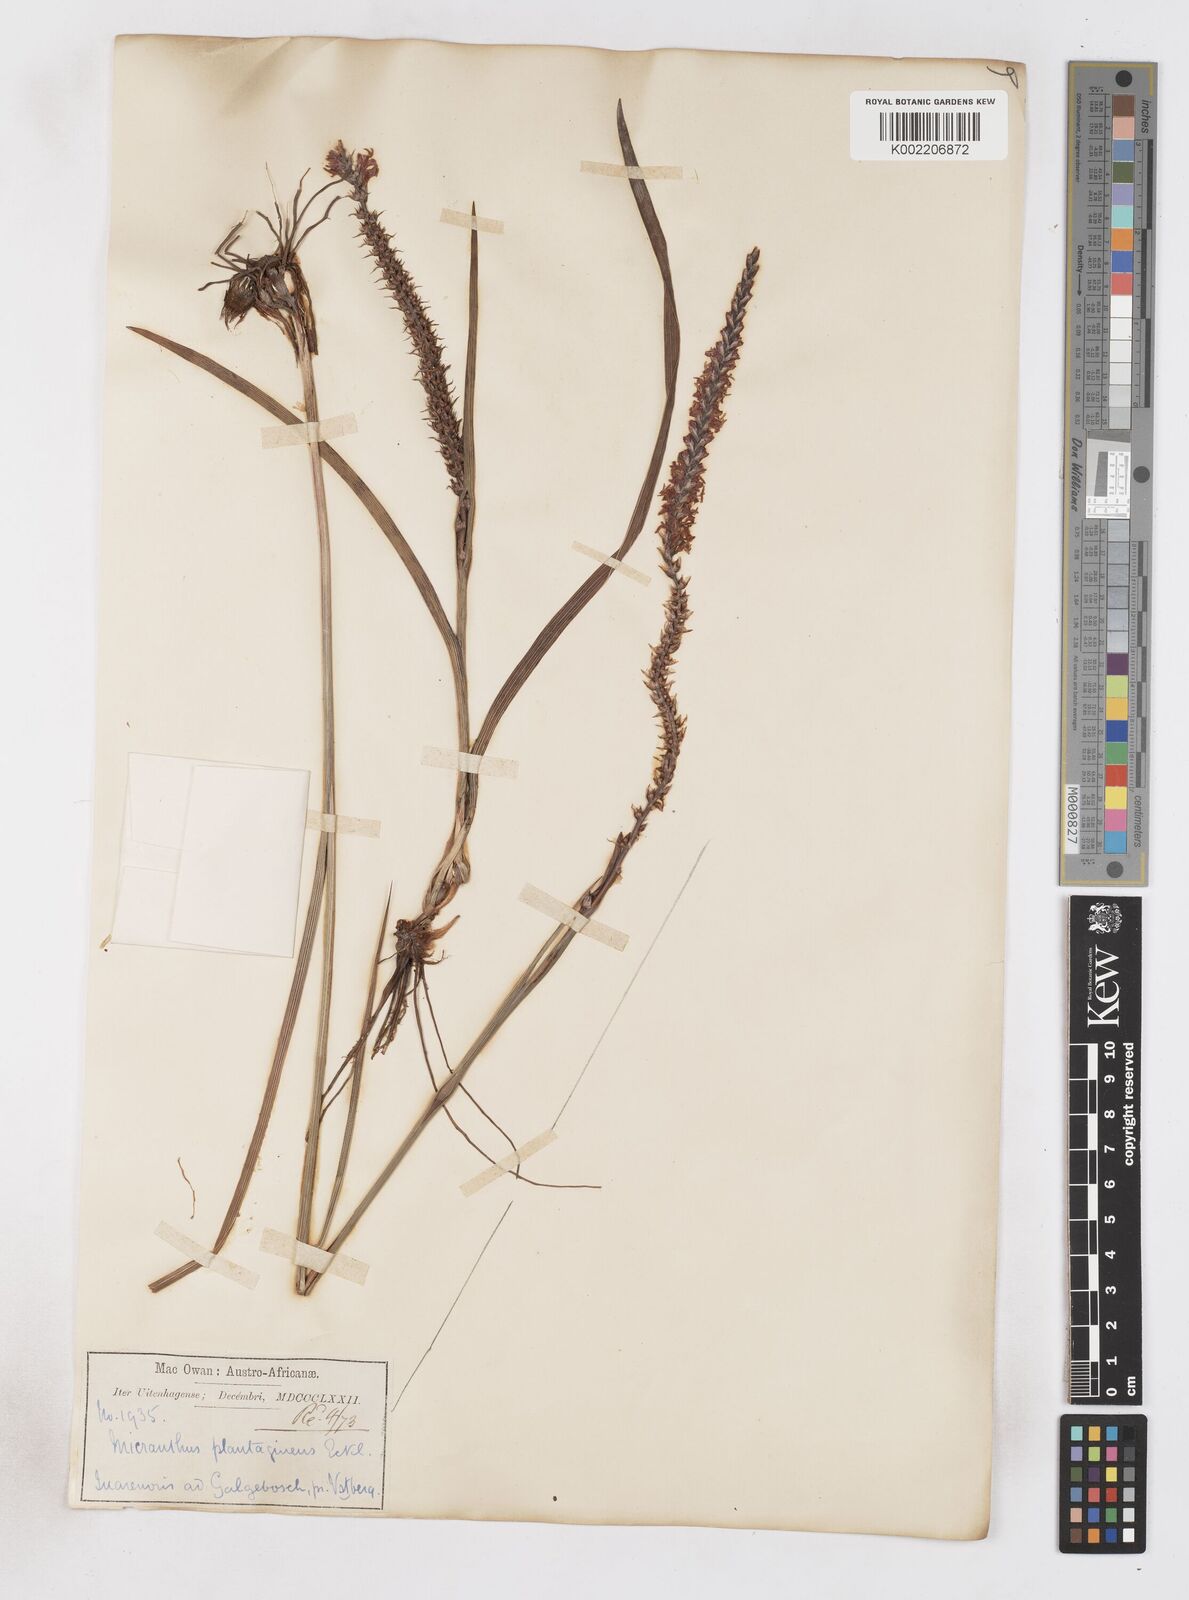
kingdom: Plantae
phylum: Tracheophyta
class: Liliopsida
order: Asparagales
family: Iridaceae
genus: Micranthus
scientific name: Micranthus plantagineus
